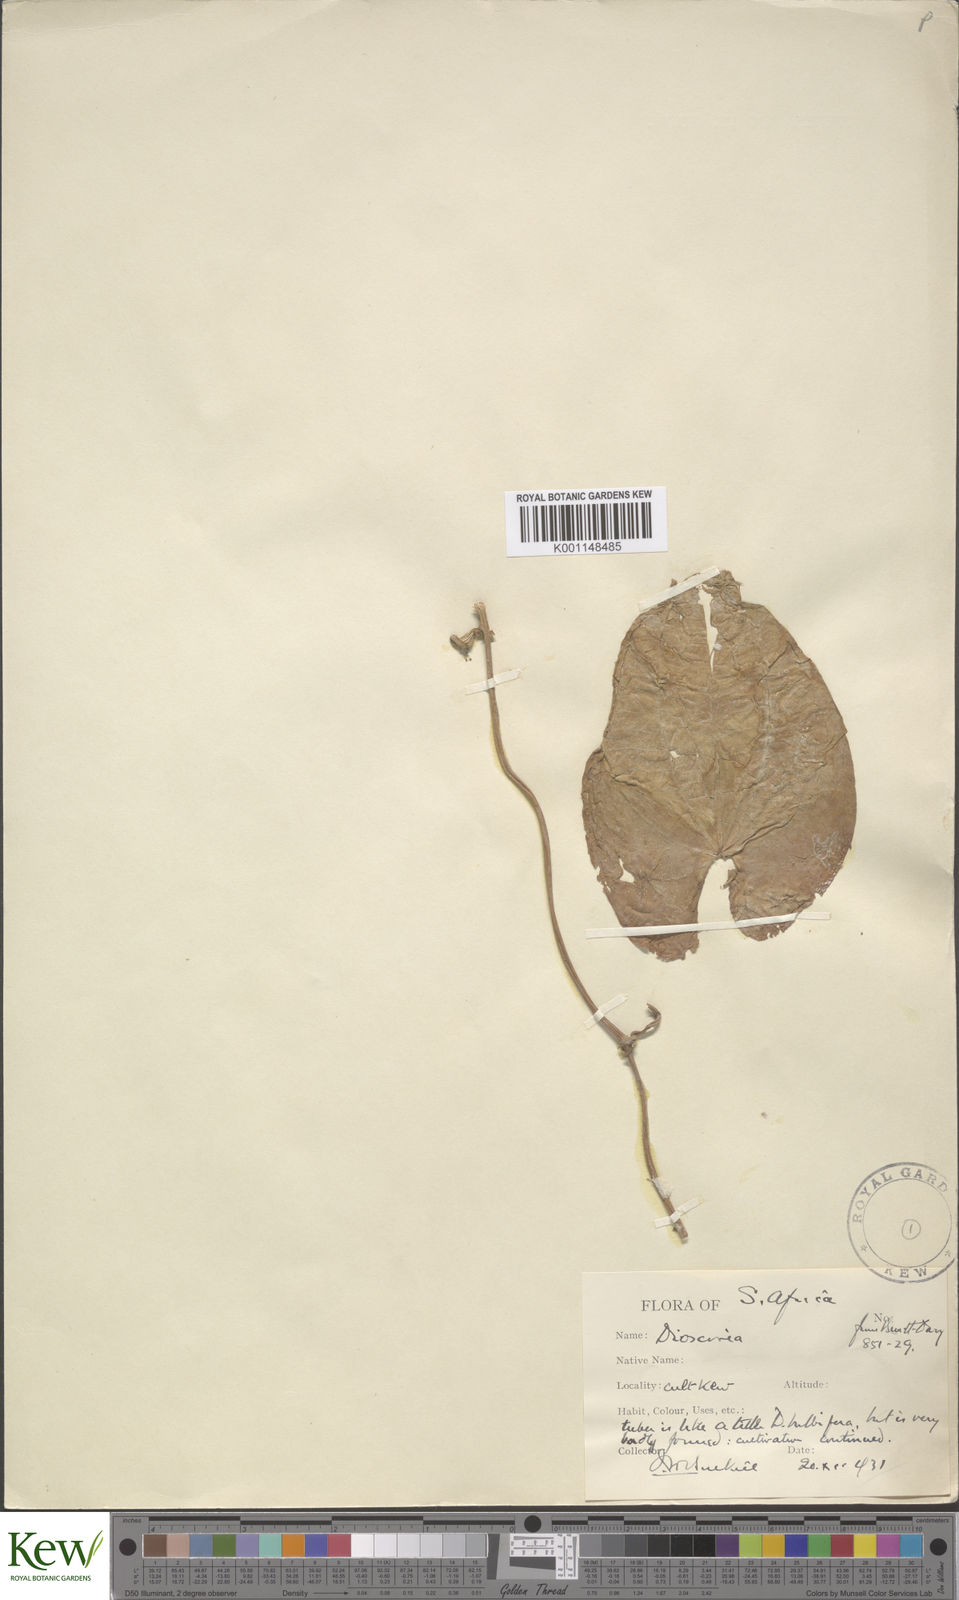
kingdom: Plantae
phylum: Tracheophyta
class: Liliopsida
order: Dioscoreales
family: Dioscoreaceae
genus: Dioscorea
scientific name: Dioscorea cotinifolia
